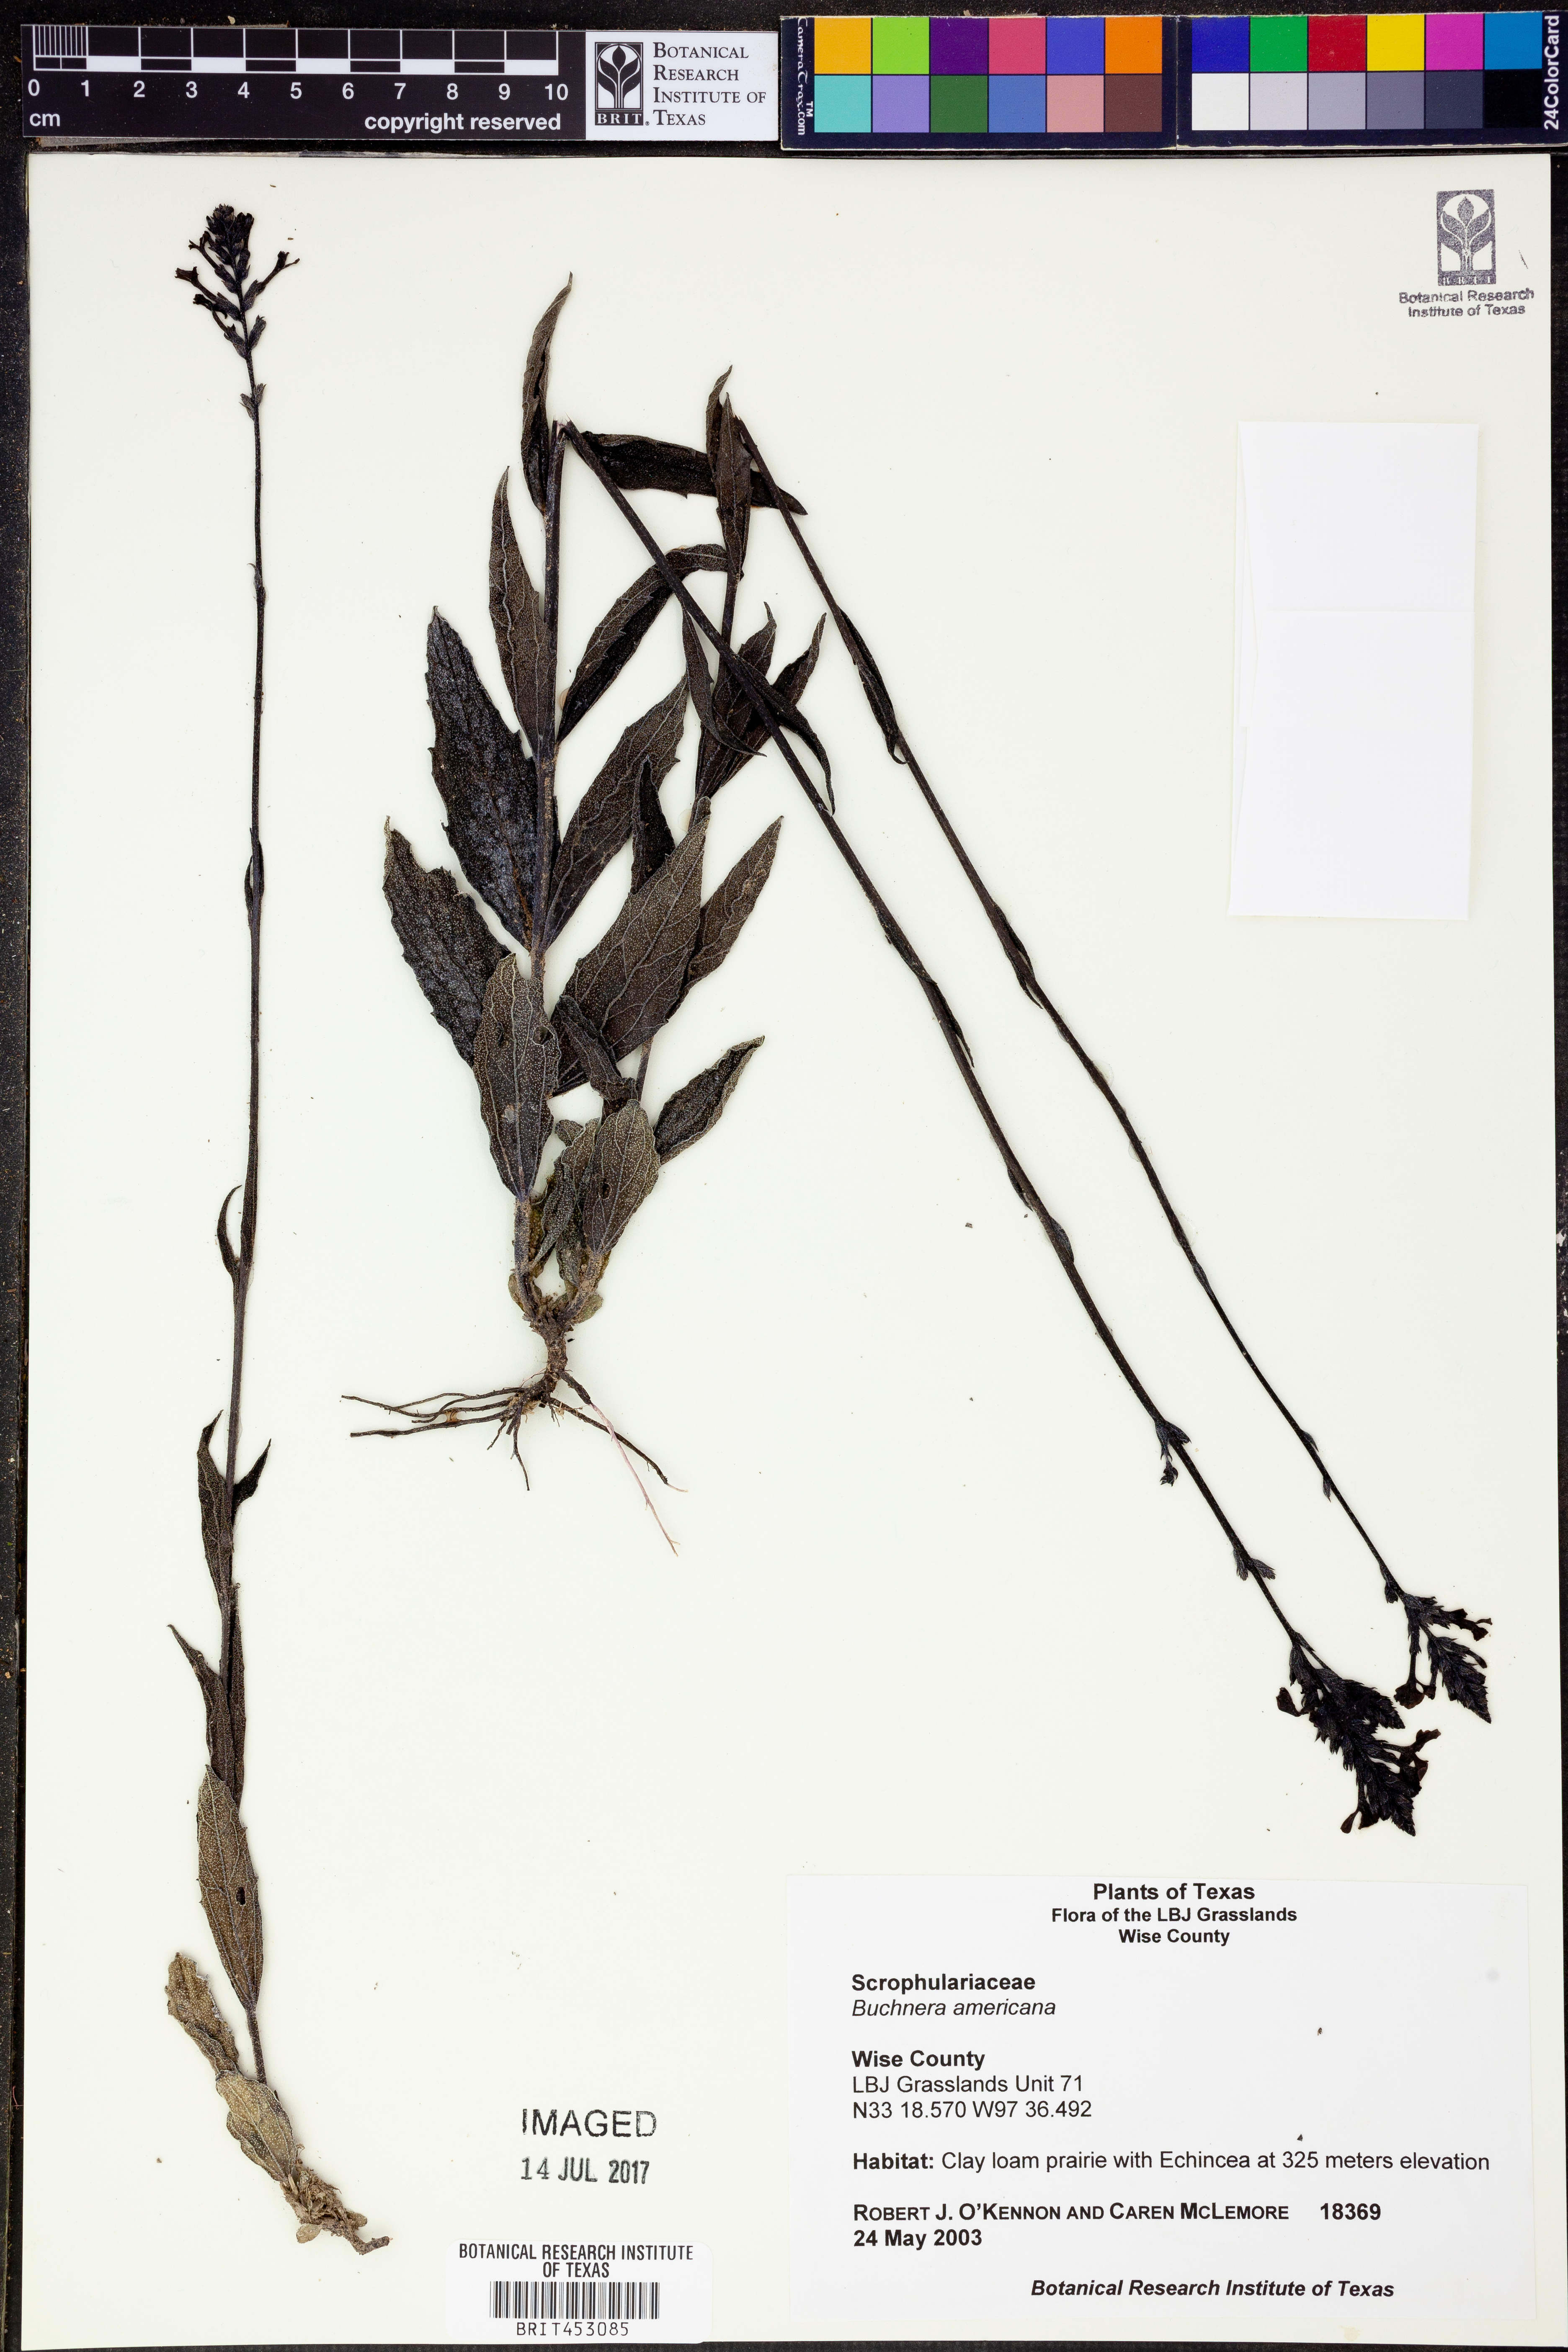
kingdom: Plantae
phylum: Tracheophyta
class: Magnoliopsida
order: Lamiales
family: Orobanchaceae
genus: Buchnera
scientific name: Buchnera americana
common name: American bluehearts
